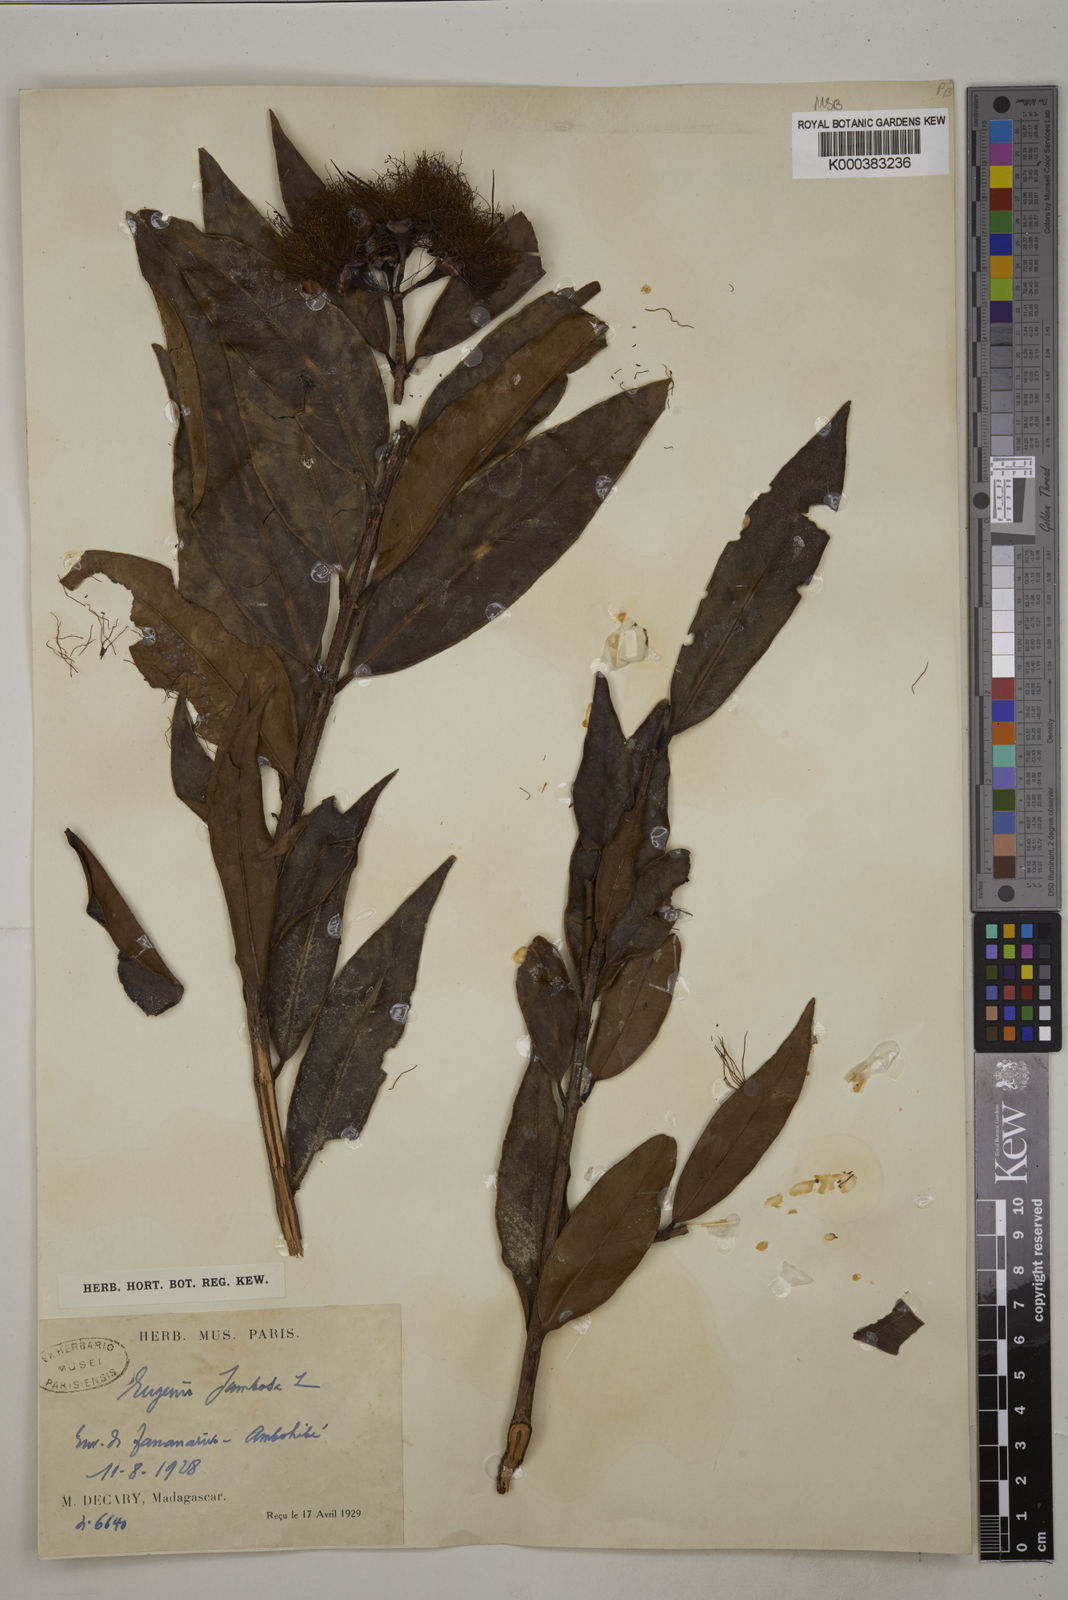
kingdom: Plantae
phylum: Tracheophyta
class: Magnoliopsida
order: Myrtales
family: Myrtaceae
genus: Syzygium
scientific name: Syzygium jambos
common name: Malabar plum
